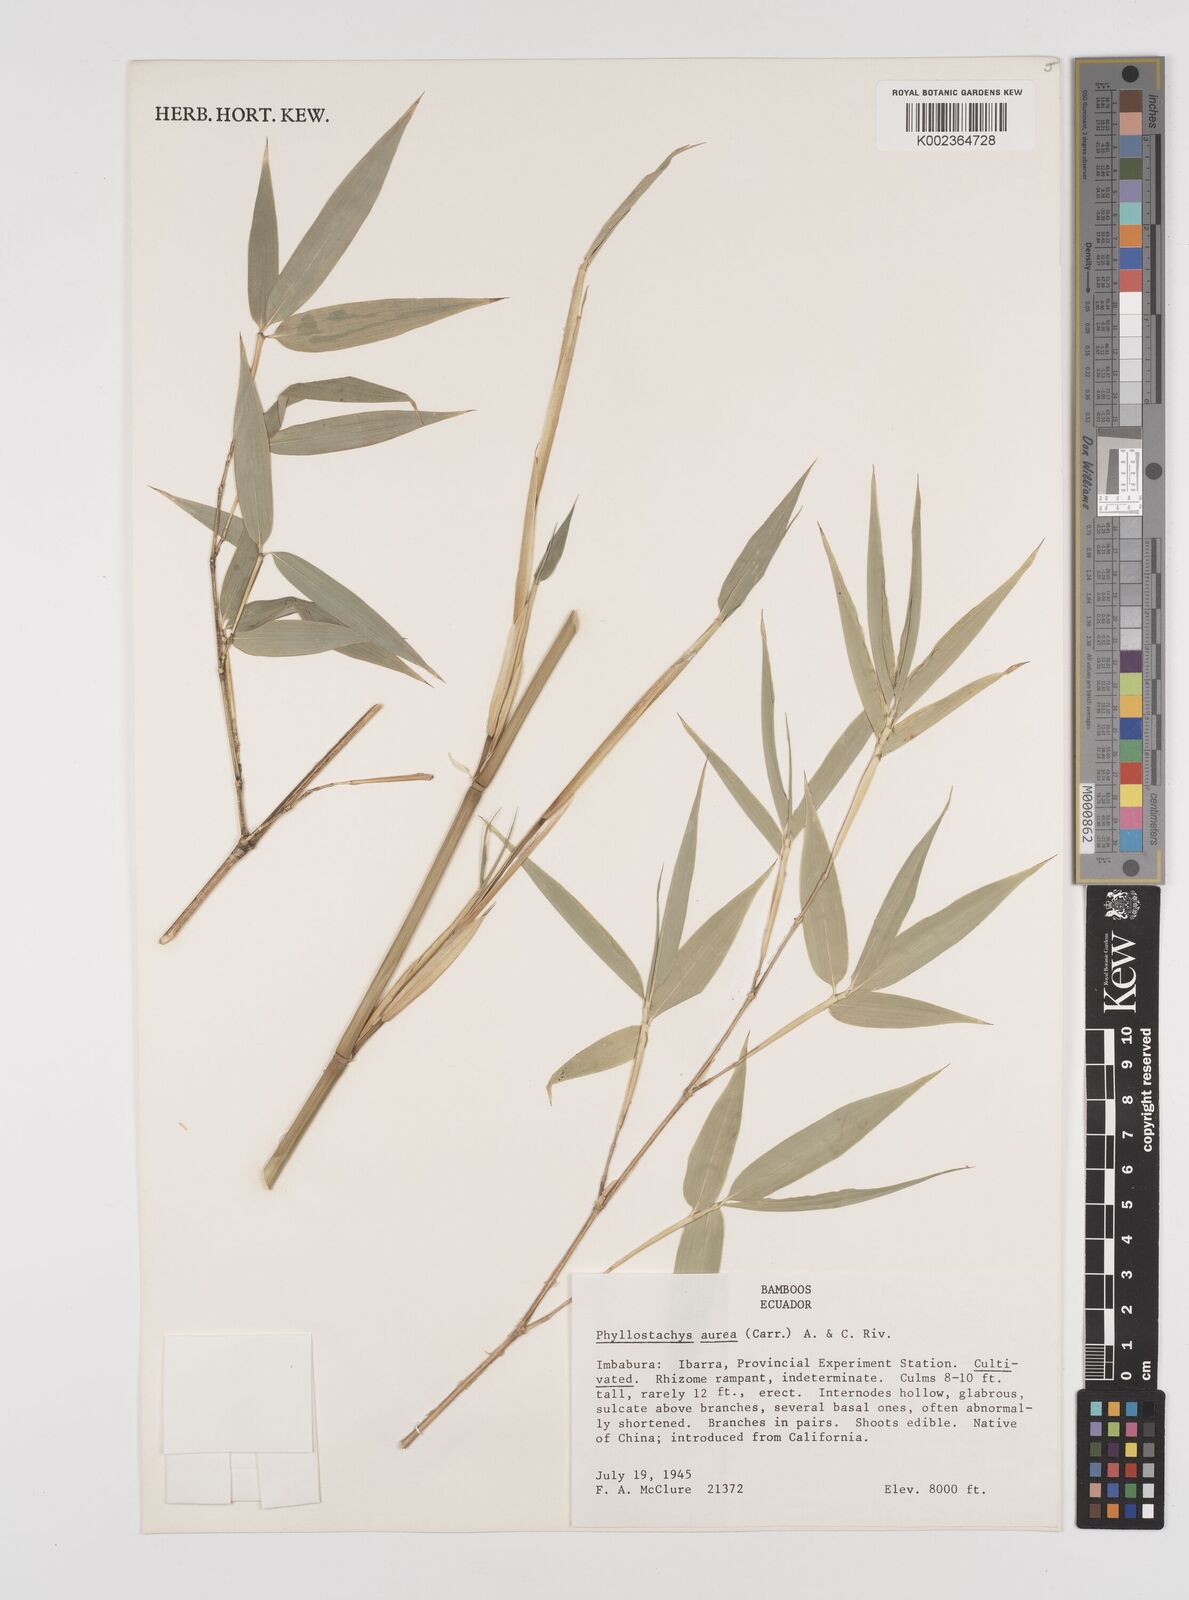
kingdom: Plantae
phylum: Tracheophyta
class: Liliopsida
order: Poales
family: Poaceae
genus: Phyllostachys
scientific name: Phyllostachys aurea
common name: Golden bamboo
